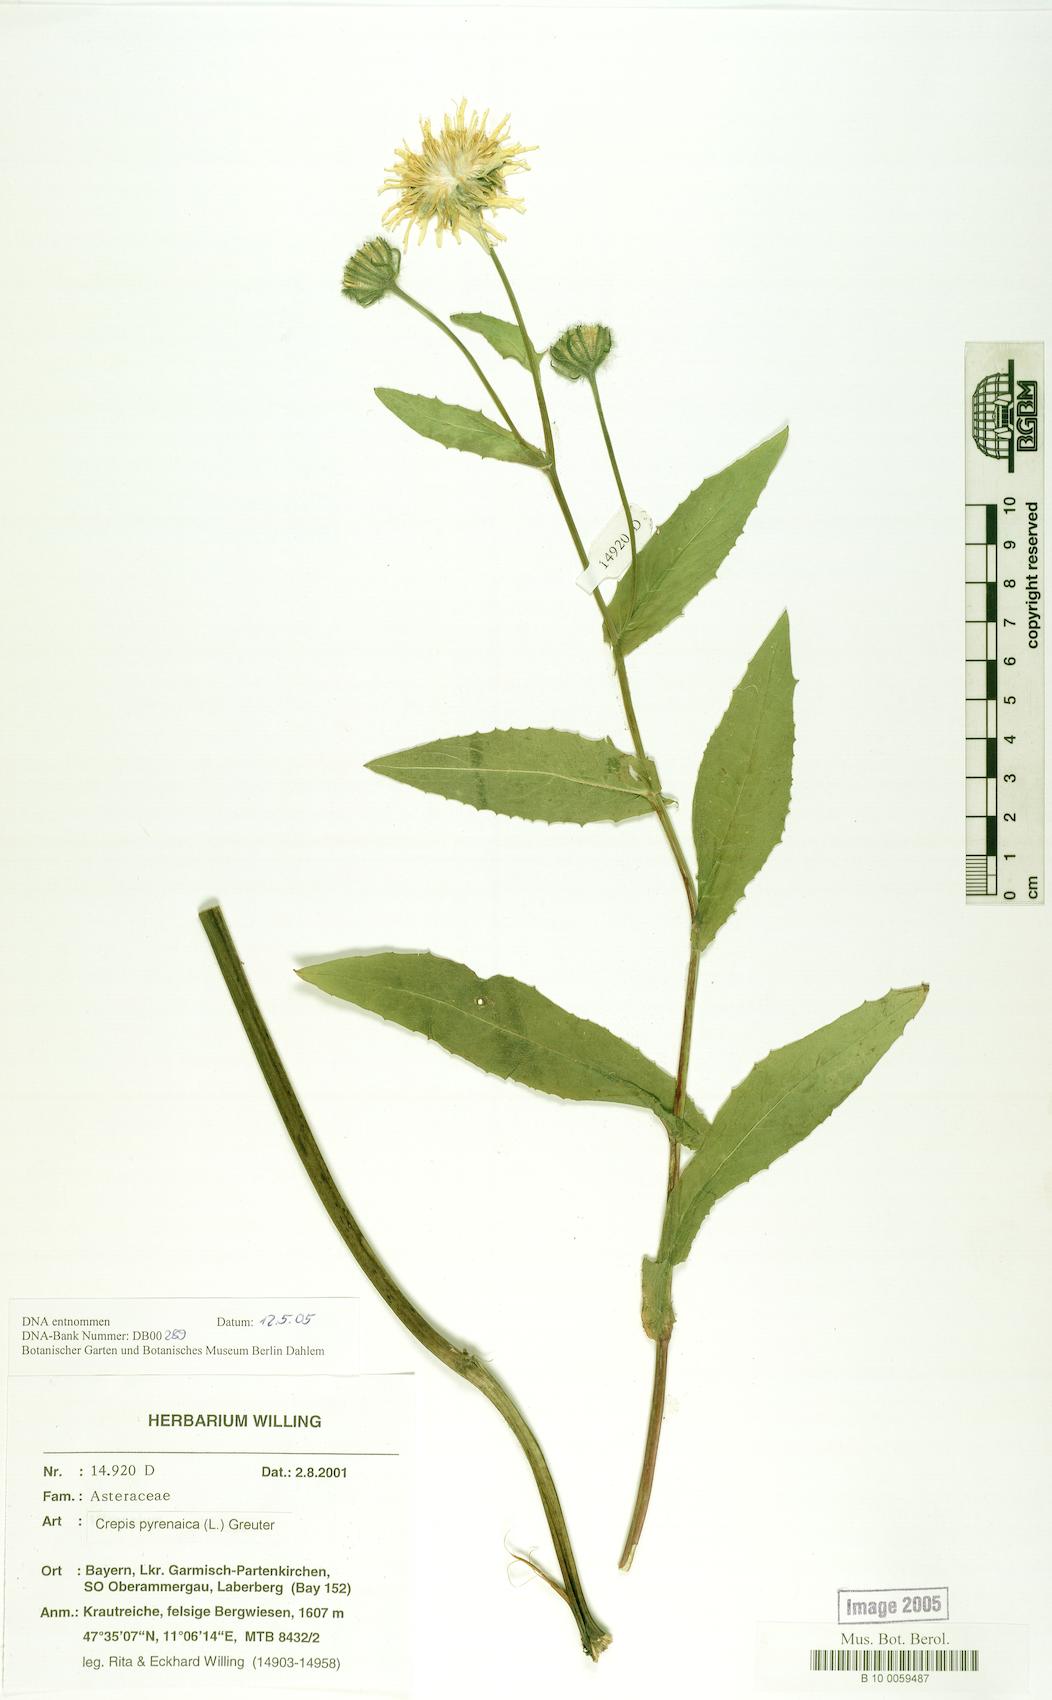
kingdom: Plantae
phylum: Tracheophyta
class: Magnoliopsida
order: Asterales
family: Asteraceae
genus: Crepis
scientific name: Crepis pyrenaica
